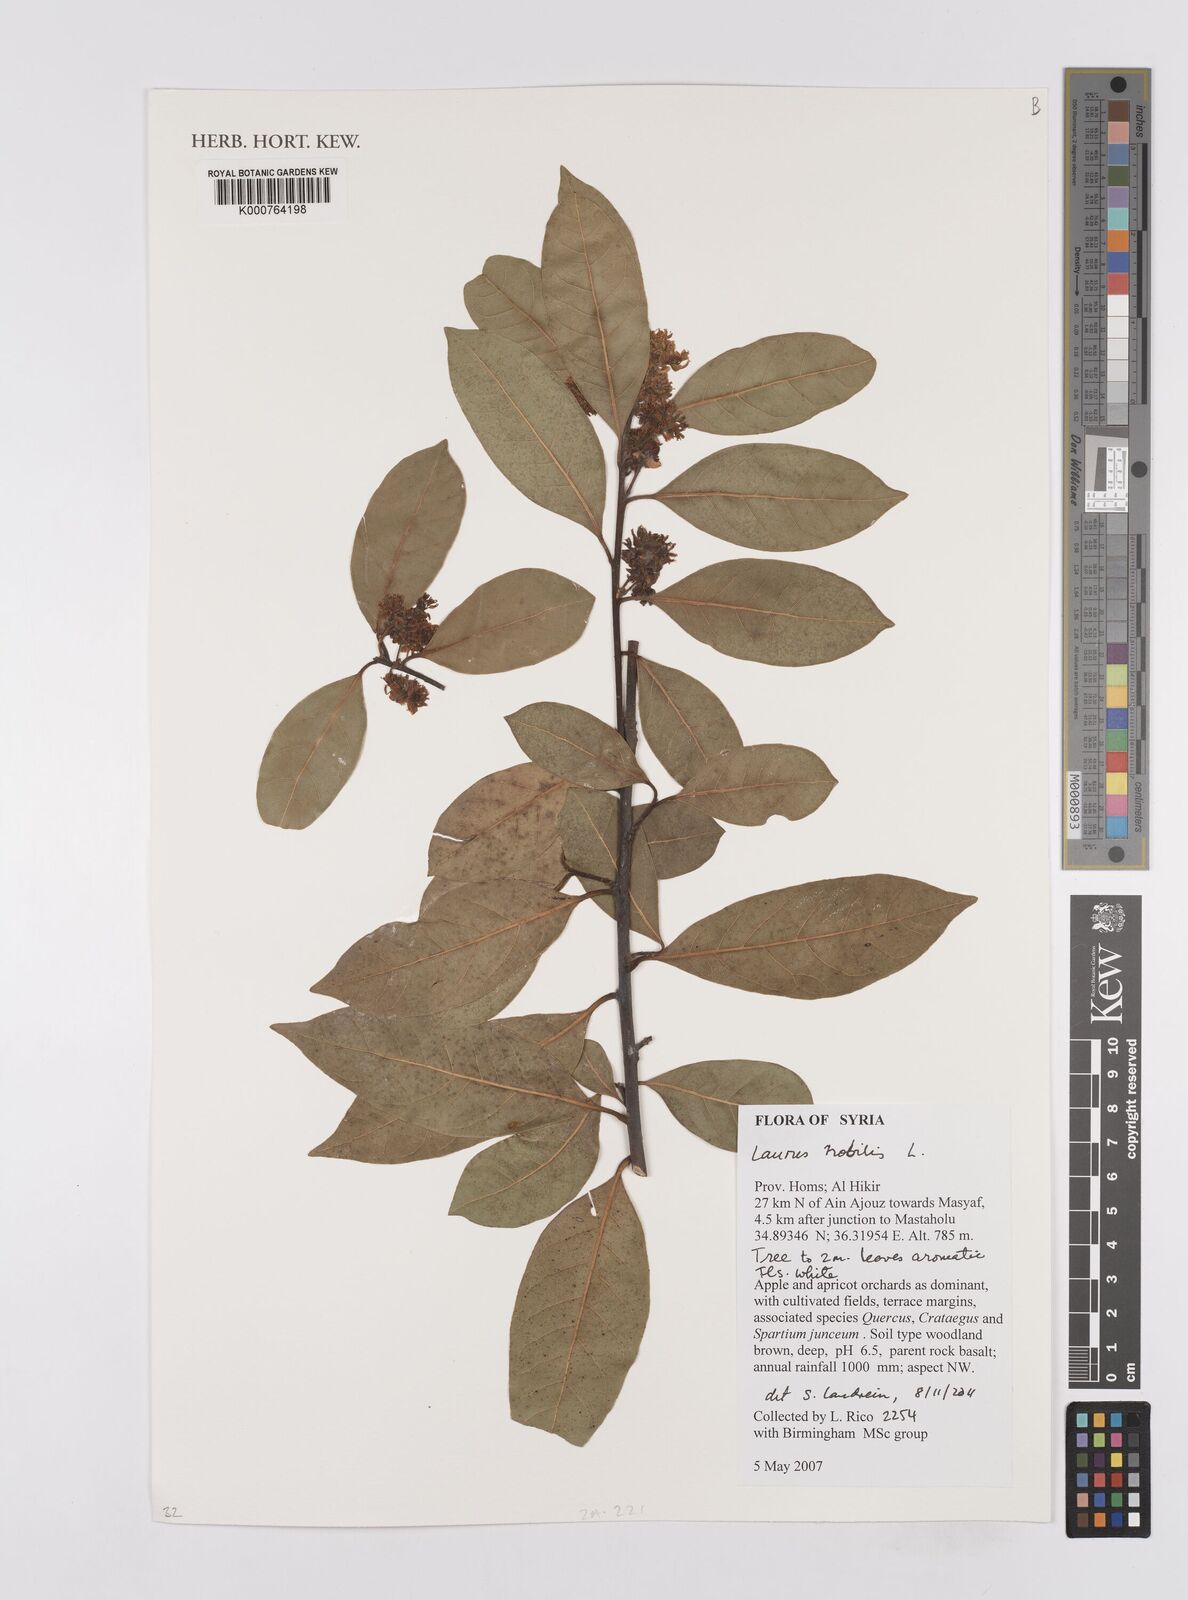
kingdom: Plantae
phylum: Tracheophyta
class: Magnoliopsida
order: Laurales
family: Lauraceae
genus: Laurus
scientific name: Laurus nobilis
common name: Bay
